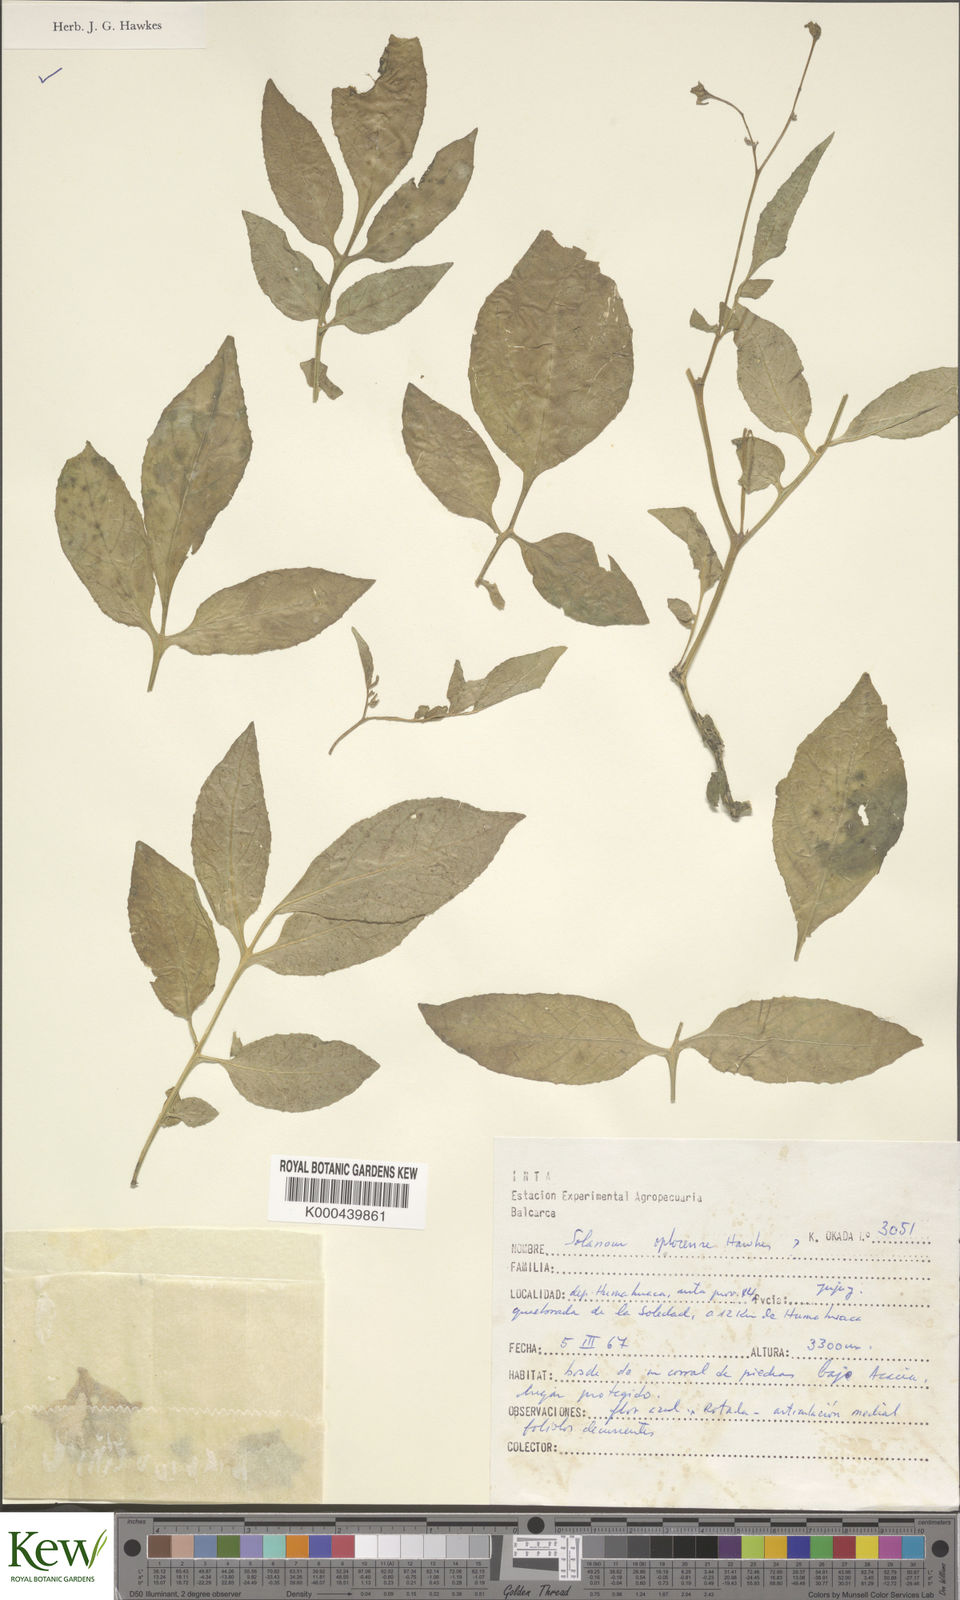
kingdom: Plantae
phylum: Tracheophyta
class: Magnoliopsida
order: Solanales
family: Solanaceae
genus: Solanum
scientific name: Solanum brevicaule
